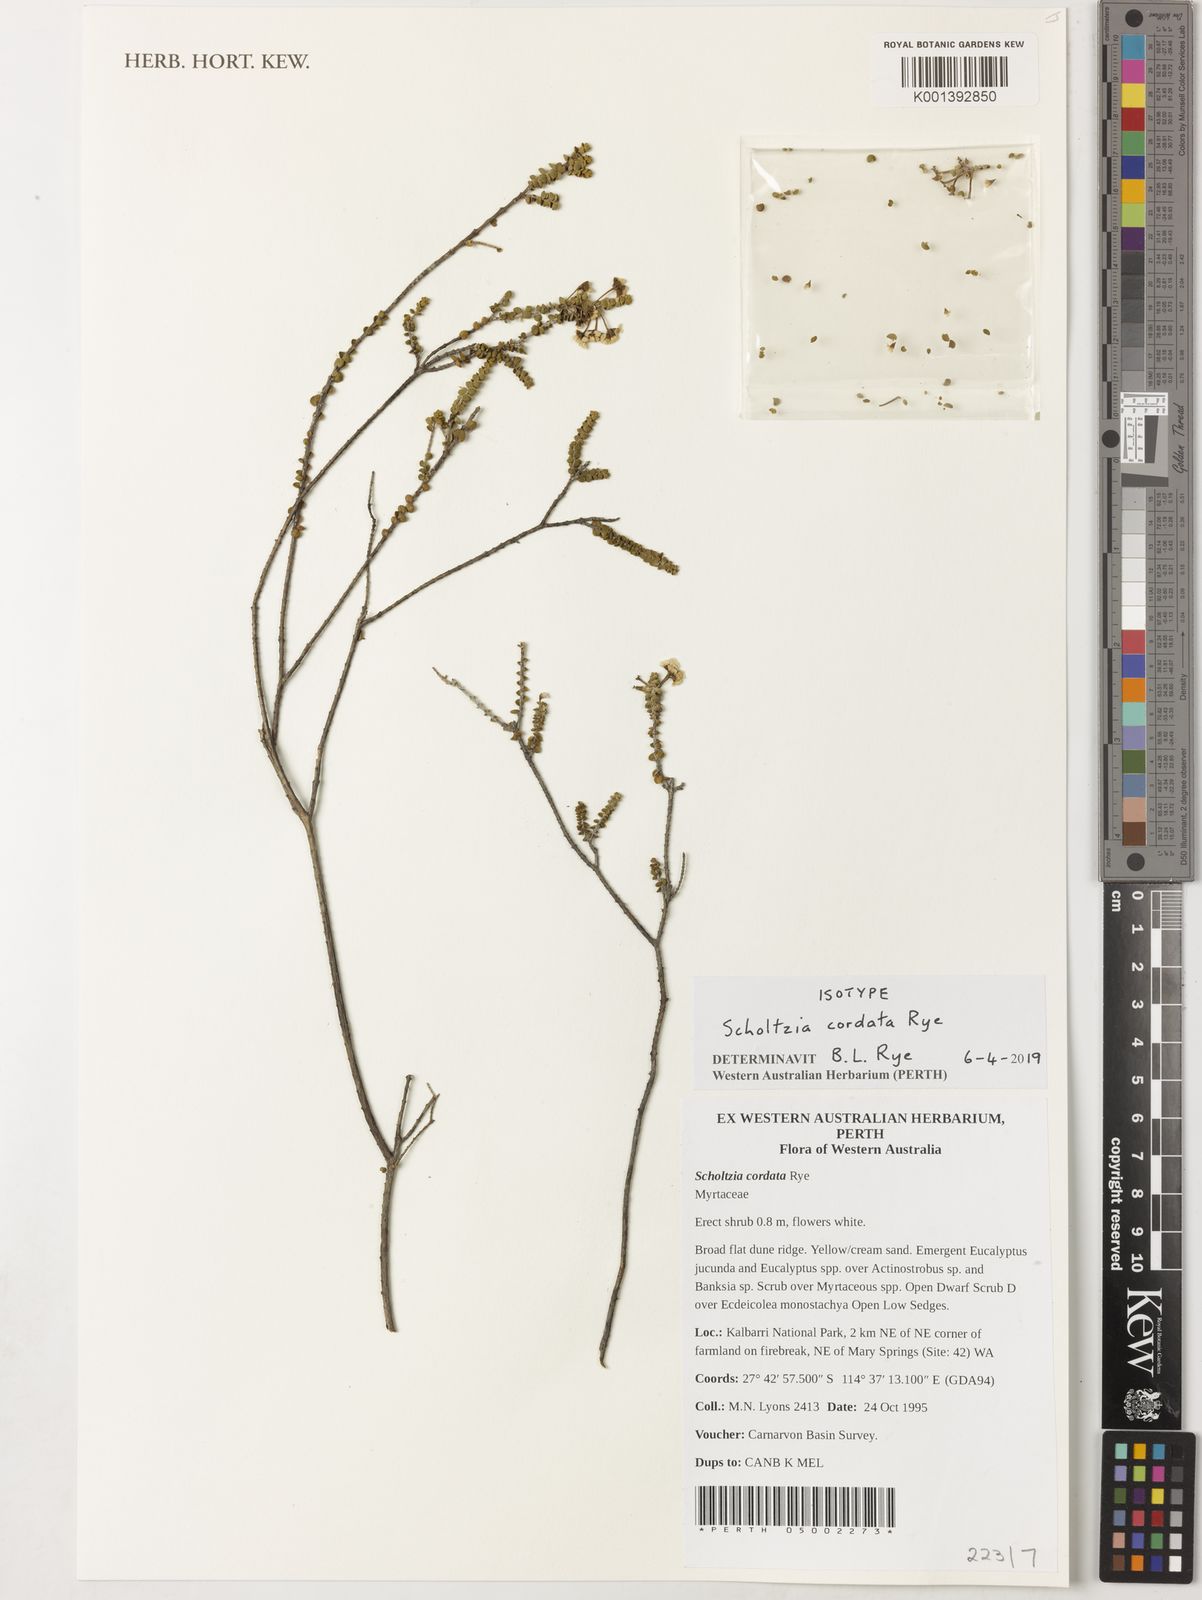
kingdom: Plantae
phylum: Tracheophyta
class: Magnoliopsida
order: Myrtales
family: Myrtaceae
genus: Scholtzia
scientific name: Scholtzia
